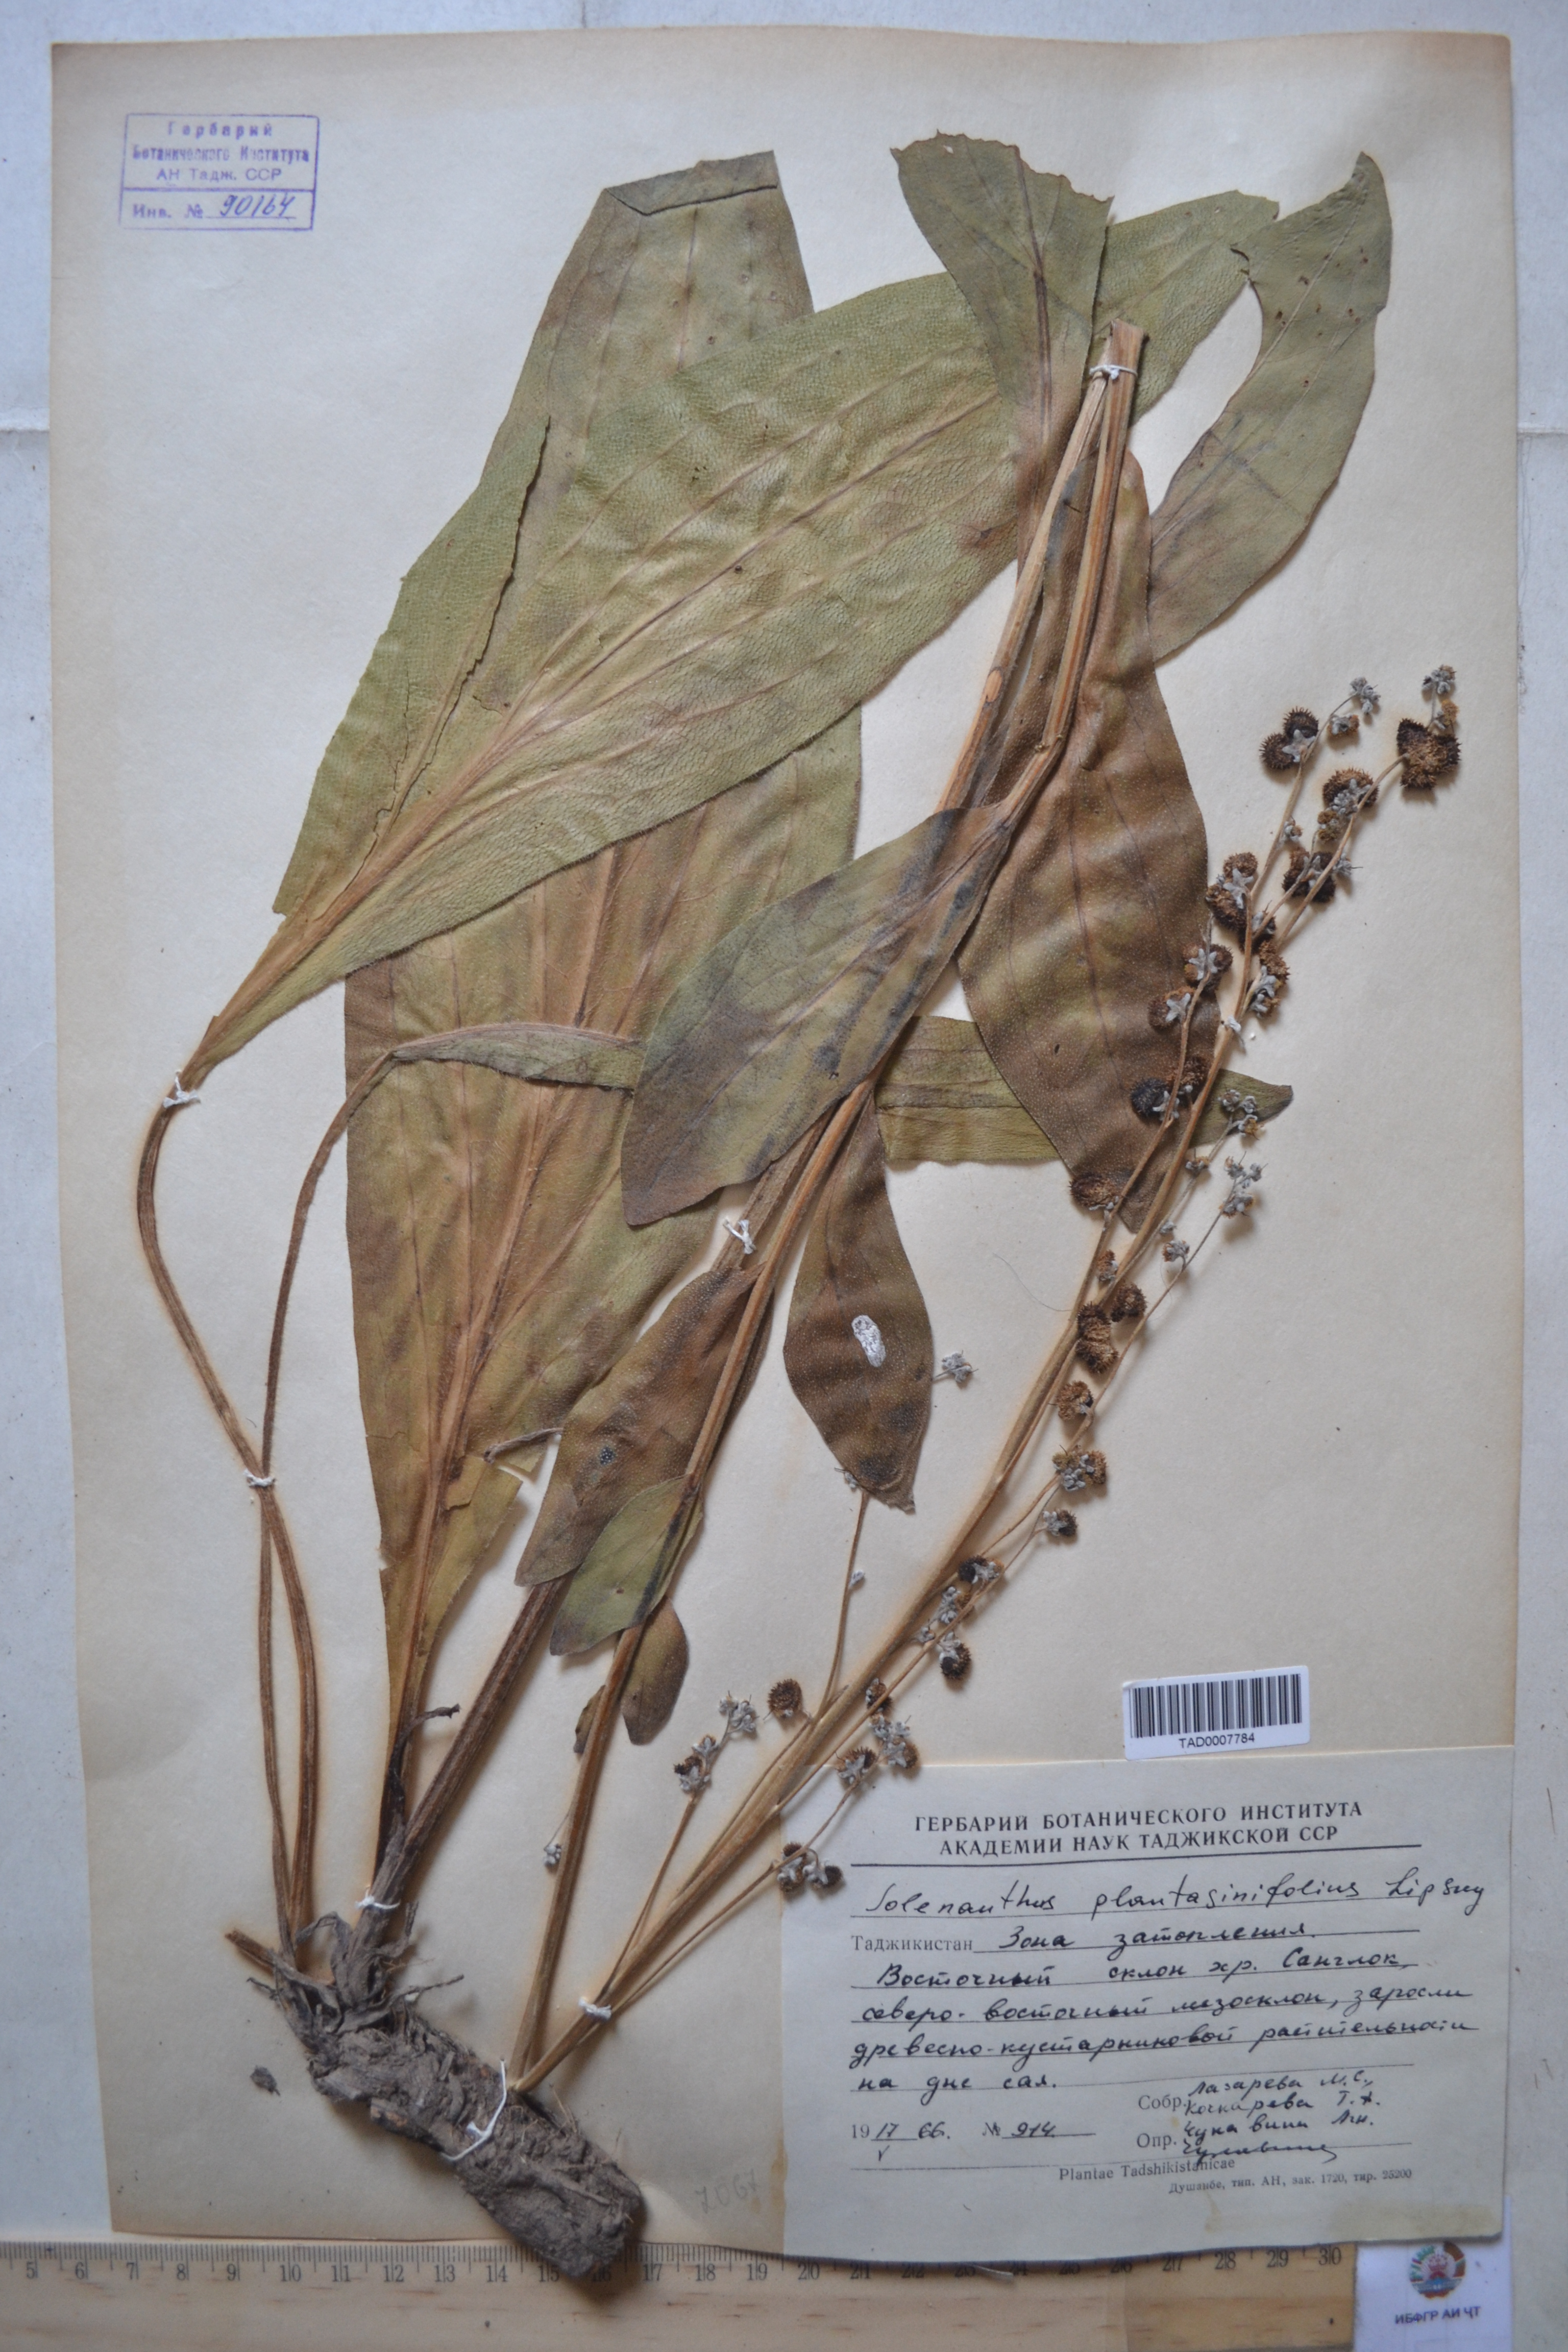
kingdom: Plantae
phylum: Tracheophyta
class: Magnoliopsida
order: Boraginales
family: Boraginaceae
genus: Solenanthus
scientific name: Solenanthus plantaginifolius
